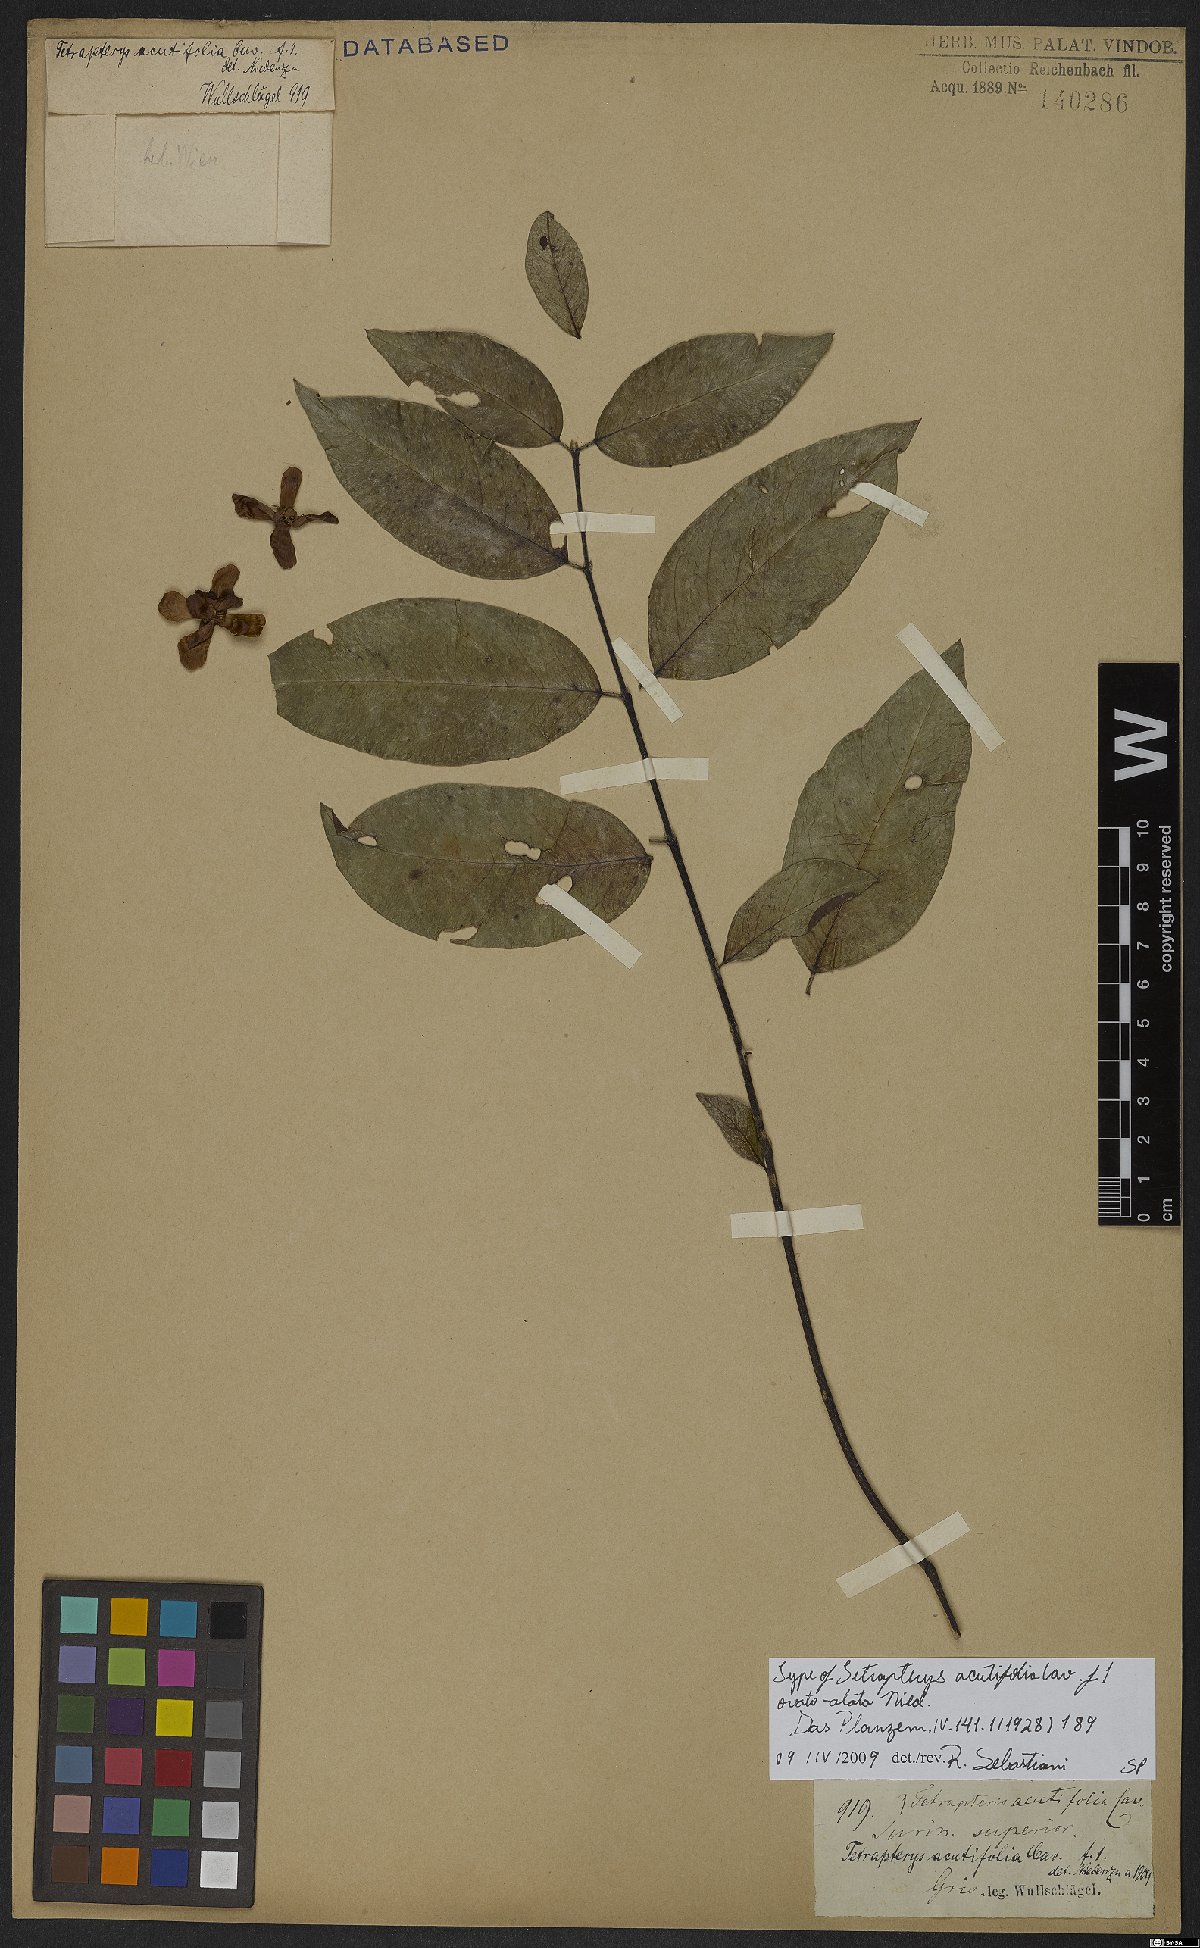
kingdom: Plantae
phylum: Tracheophyta
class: Magnoliopsida
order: Malpighiales
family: Malpighiaceae
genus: Niedenzuella
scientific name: Niedenzuella acutifolia
